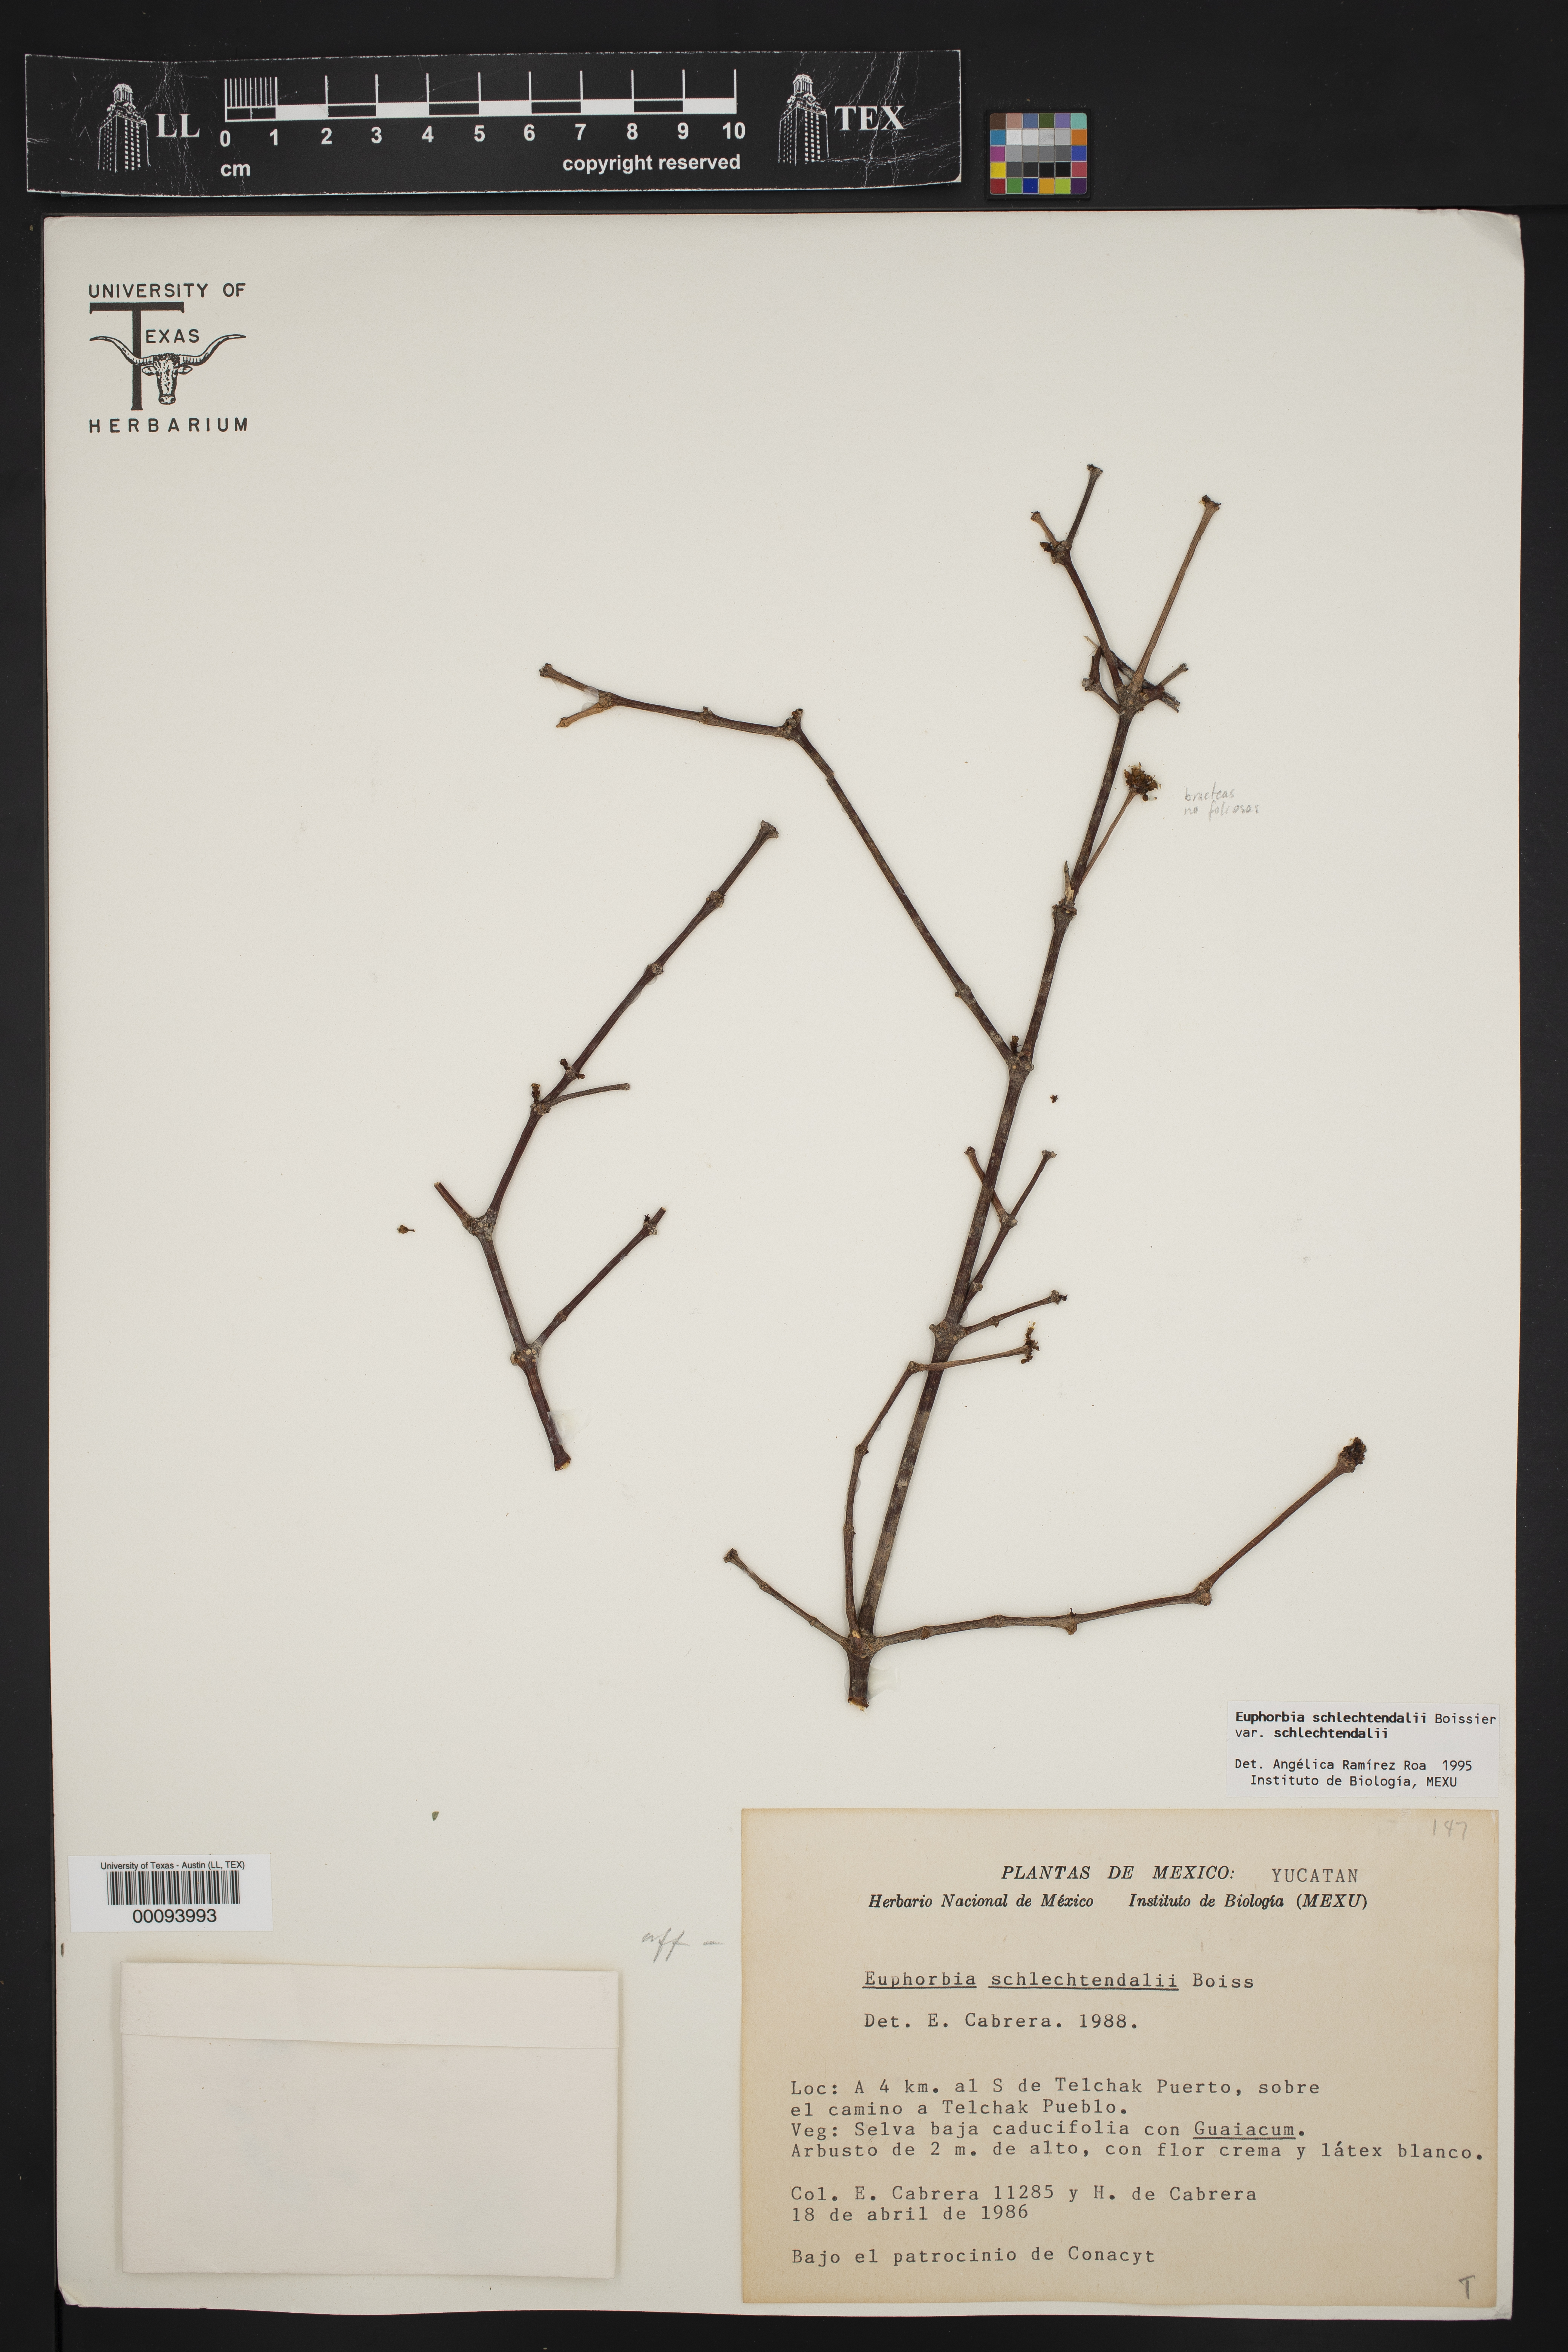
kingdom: Plantae
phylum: Tracheophyta
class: Magnoliopsida
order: Malpighiales
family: Euphorbiaceae
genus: Euphorbia
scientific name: Euphorbia schlechtendalii
